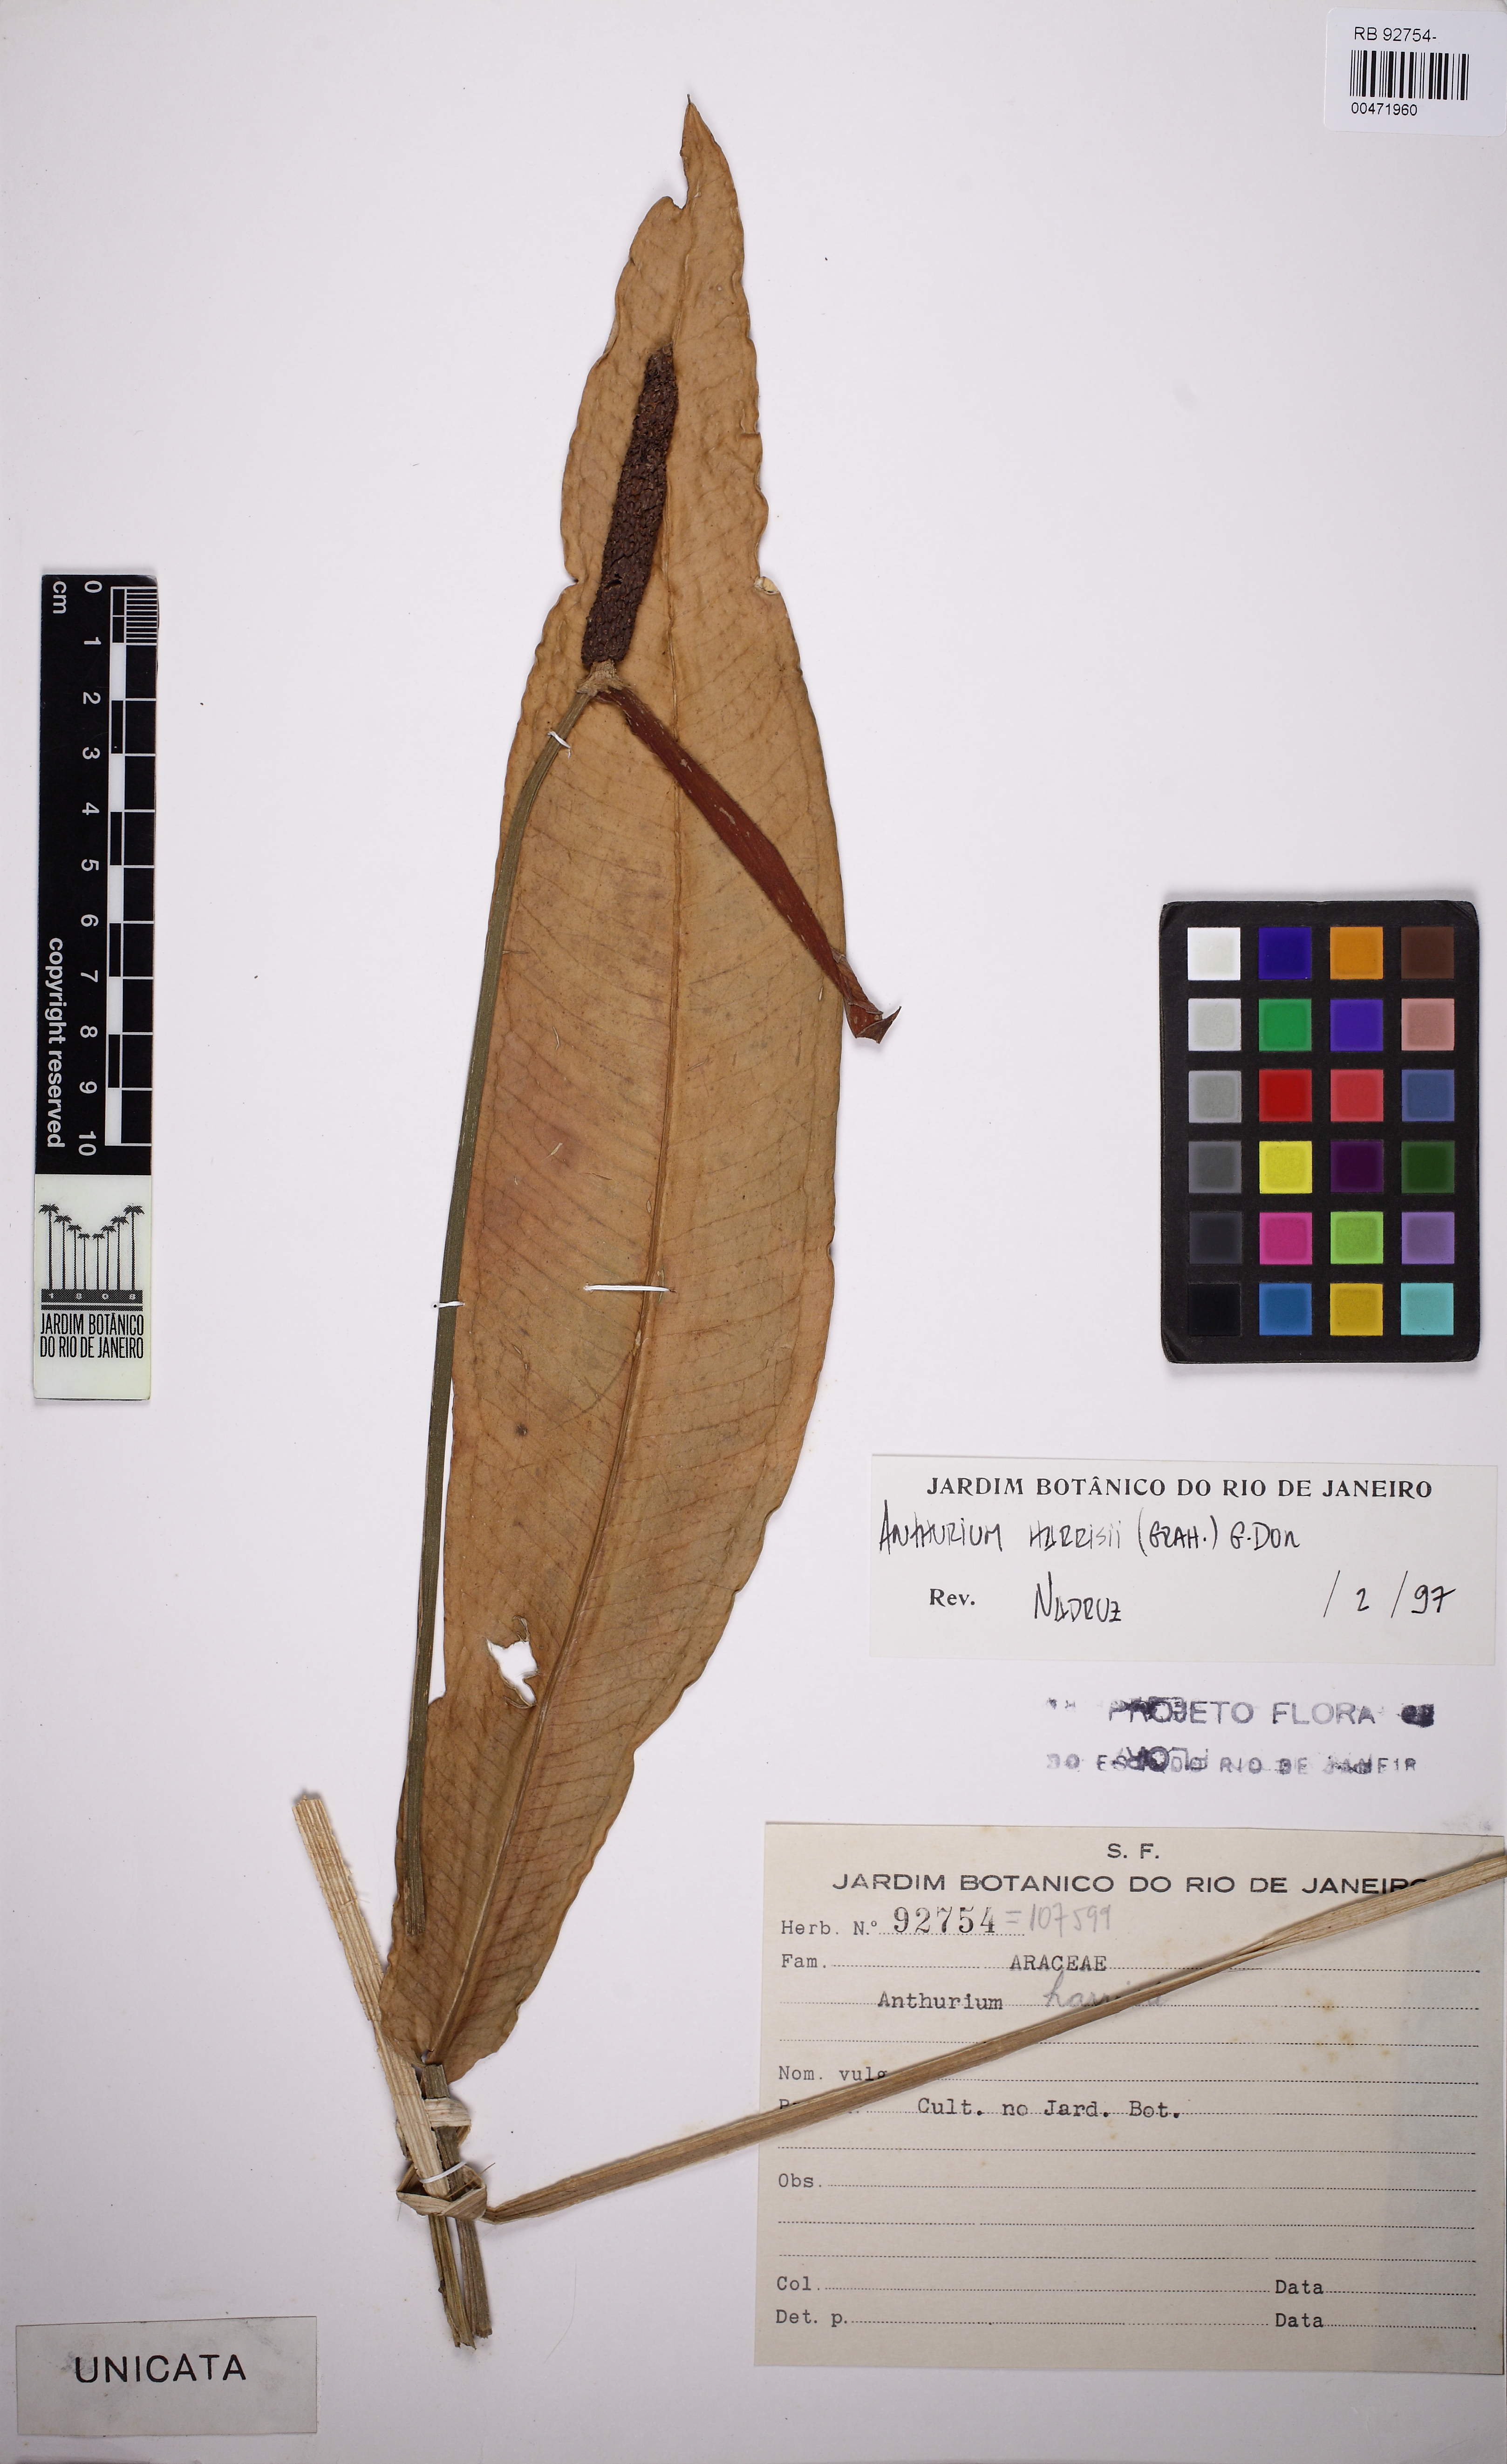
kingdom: Plantae
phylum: Tracheophyta
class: Liliopsida
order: Alismatales
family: Araceae
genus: Anthurium
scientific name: Anthurium harrisii
